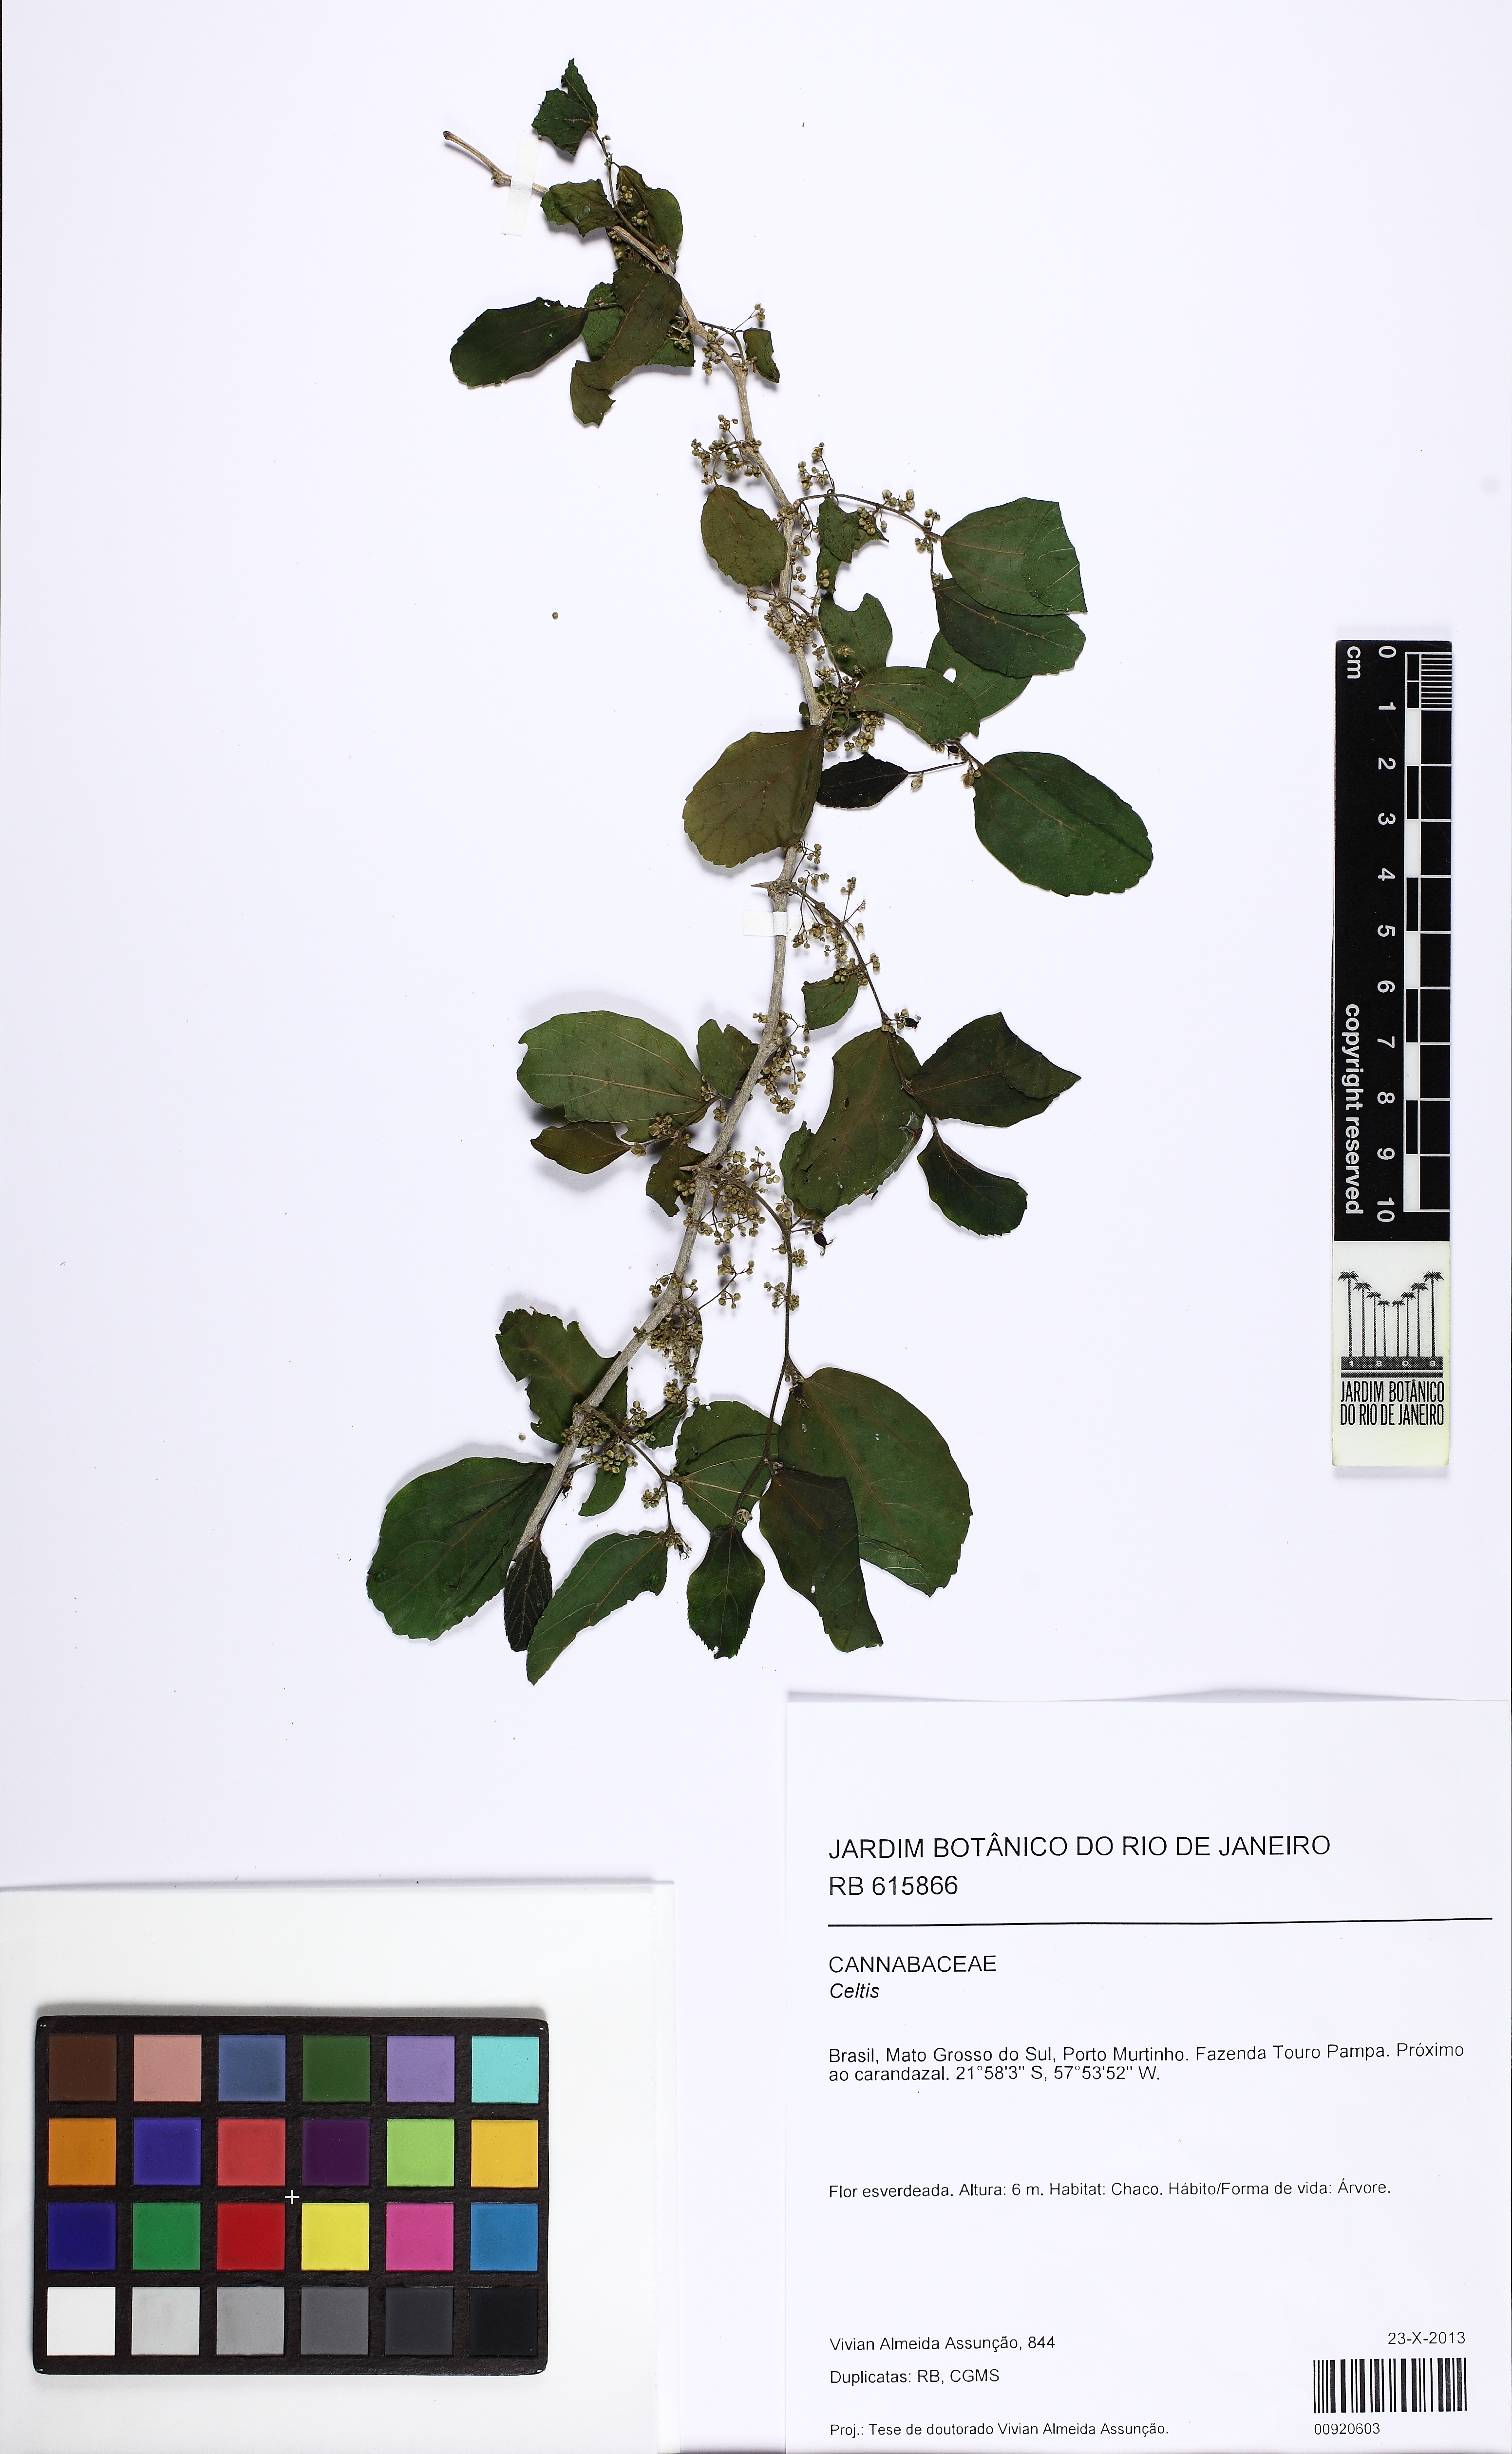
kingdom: Plantae
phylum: Tracheophyta
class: Magnoliopsida
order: Rosales
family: Cannabaceae
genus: Celtis
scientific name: Celtis
